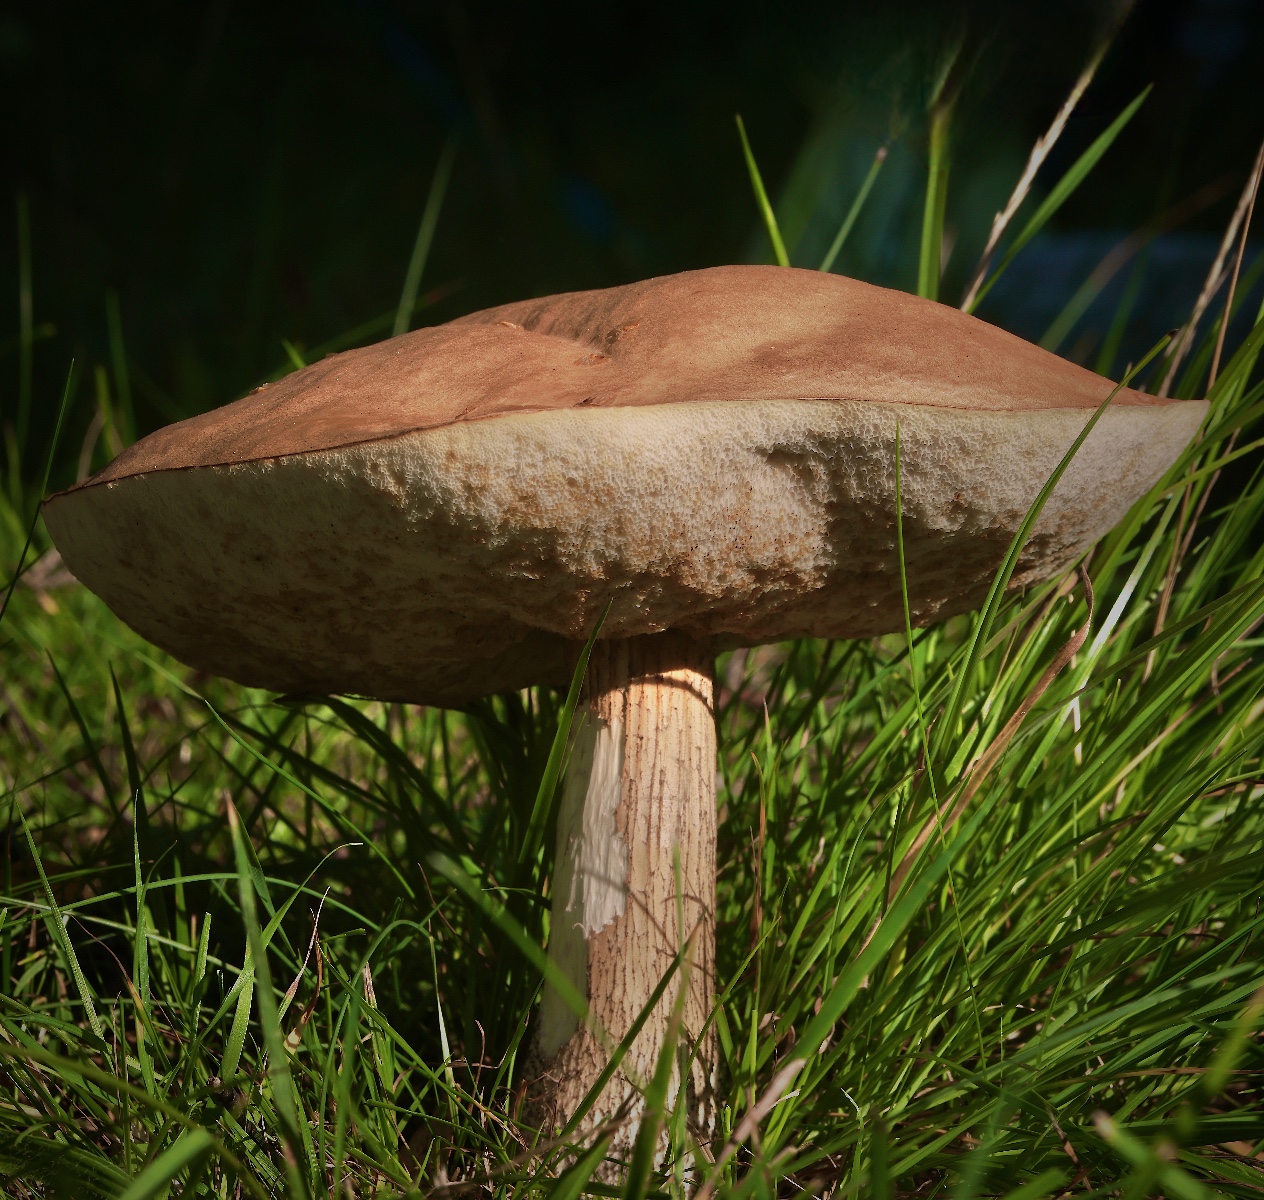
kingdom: Fungi
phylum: Basidiomycota
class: Agaricomycetes
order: Boletales
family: Boletaceae
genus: Leccinum
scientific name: Leccinum scabrum
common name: brun skælrørhat
